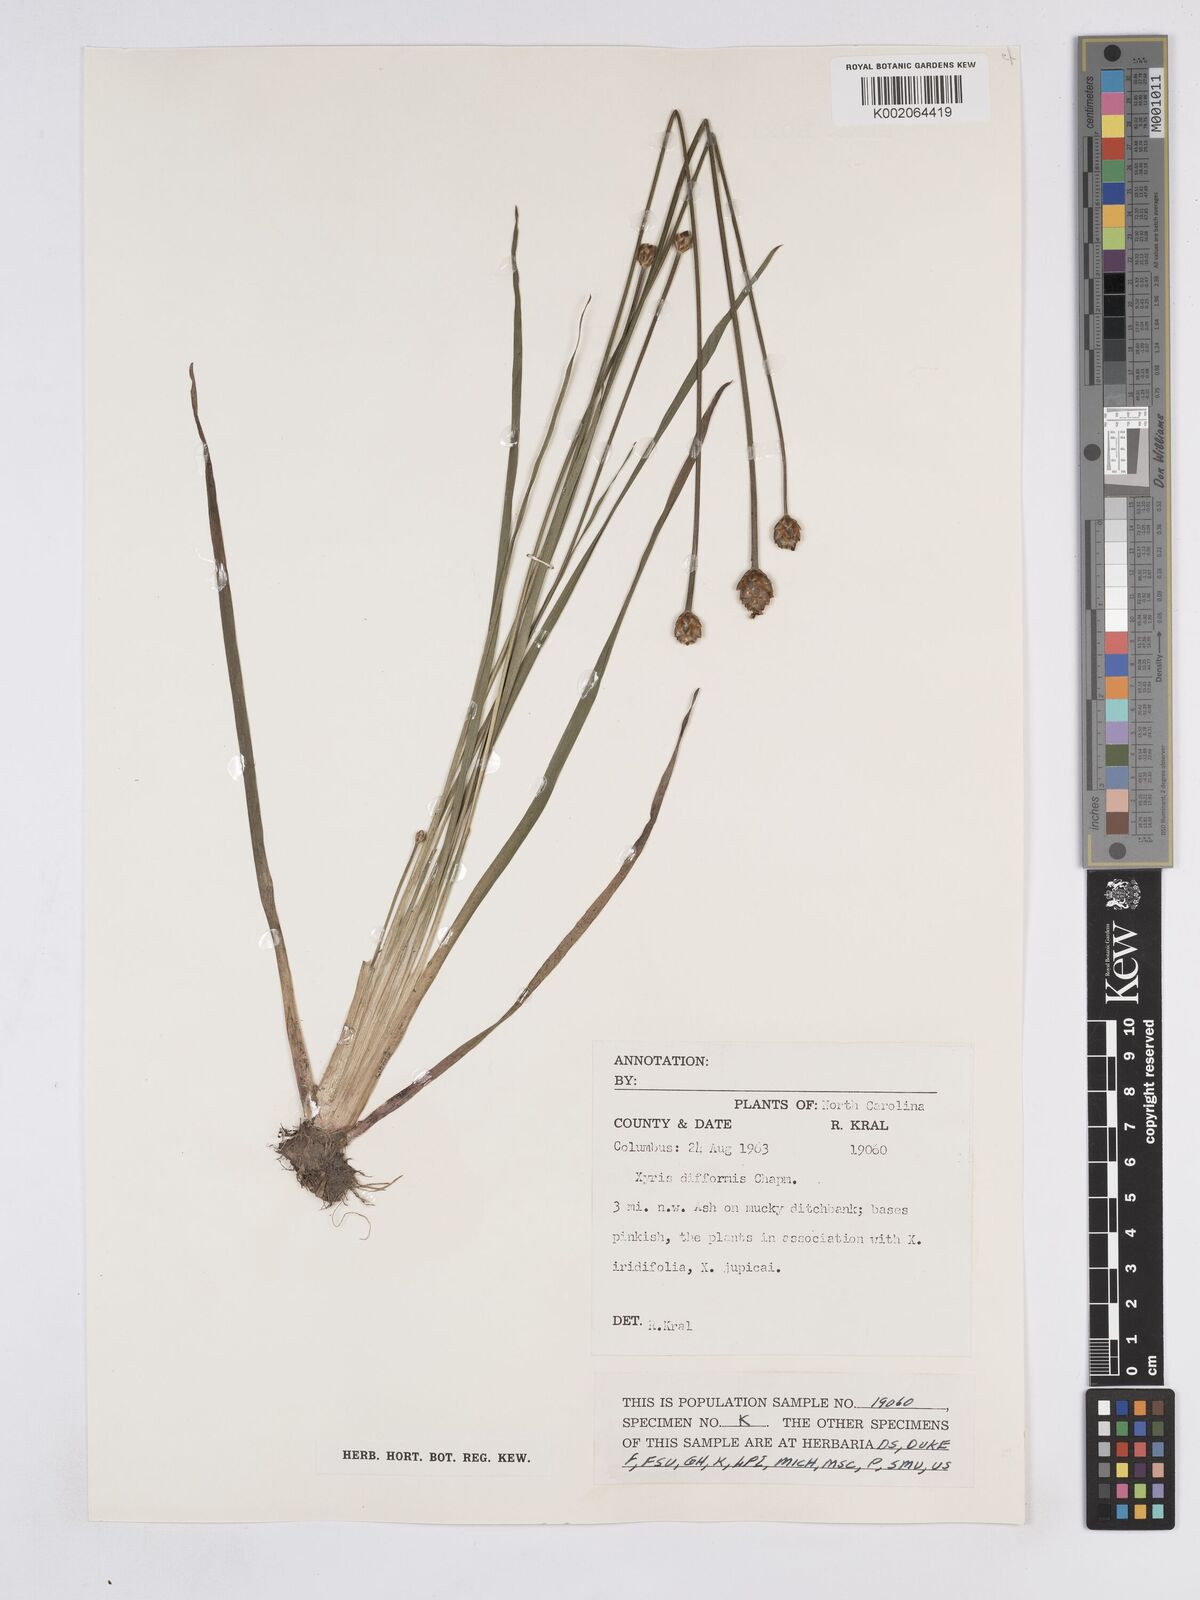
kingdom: Plantae
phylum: Tracheophyta
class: Liliopsida
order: Poales
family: Xyridaceae
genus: Xyris
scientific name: Xyris difformis
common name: Bog yellow-eyed-grass
